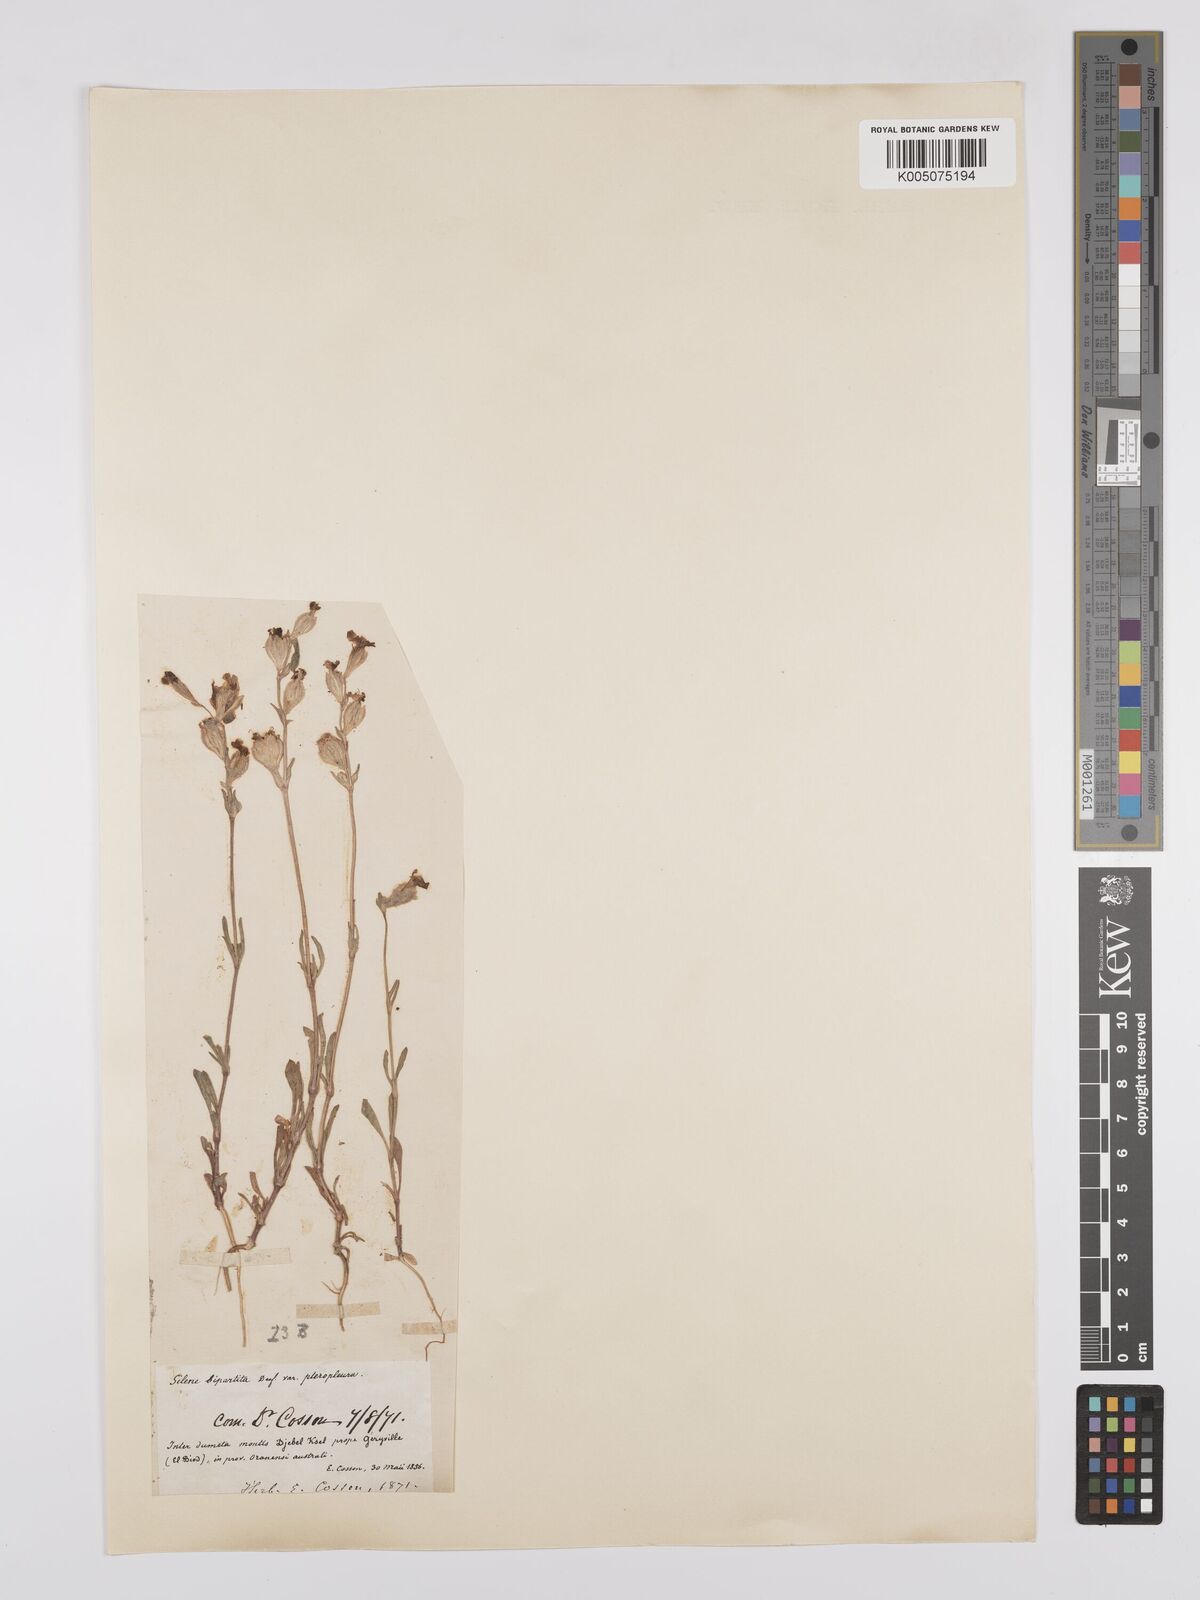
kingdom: Plantae
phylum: Tracheophyta
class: Magnoliopsida
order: Caryophyllales
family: Caryophyllaceae
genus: Silene
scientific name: Silene stricta
